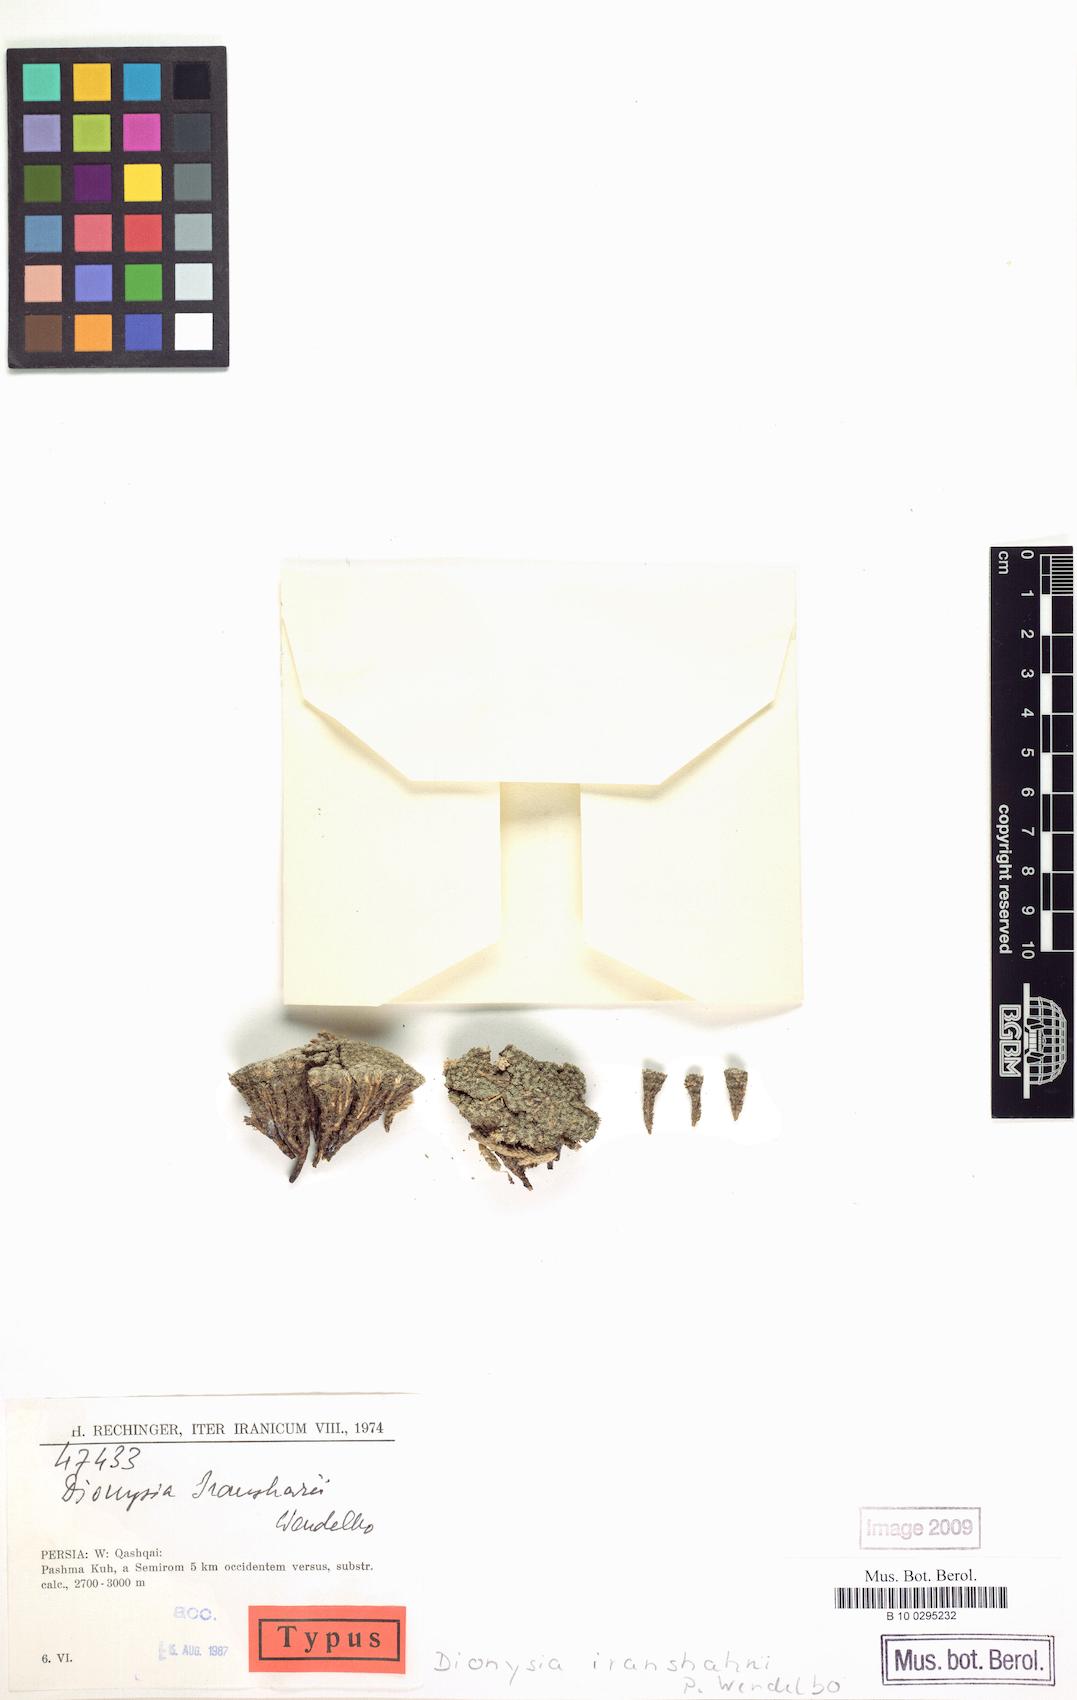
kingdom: Plantae
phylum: Tracheophyta
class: Magnoliopsida
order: Ericales
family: Primulaceae
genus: Dionysia
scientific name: Dionysia iranshahrii
